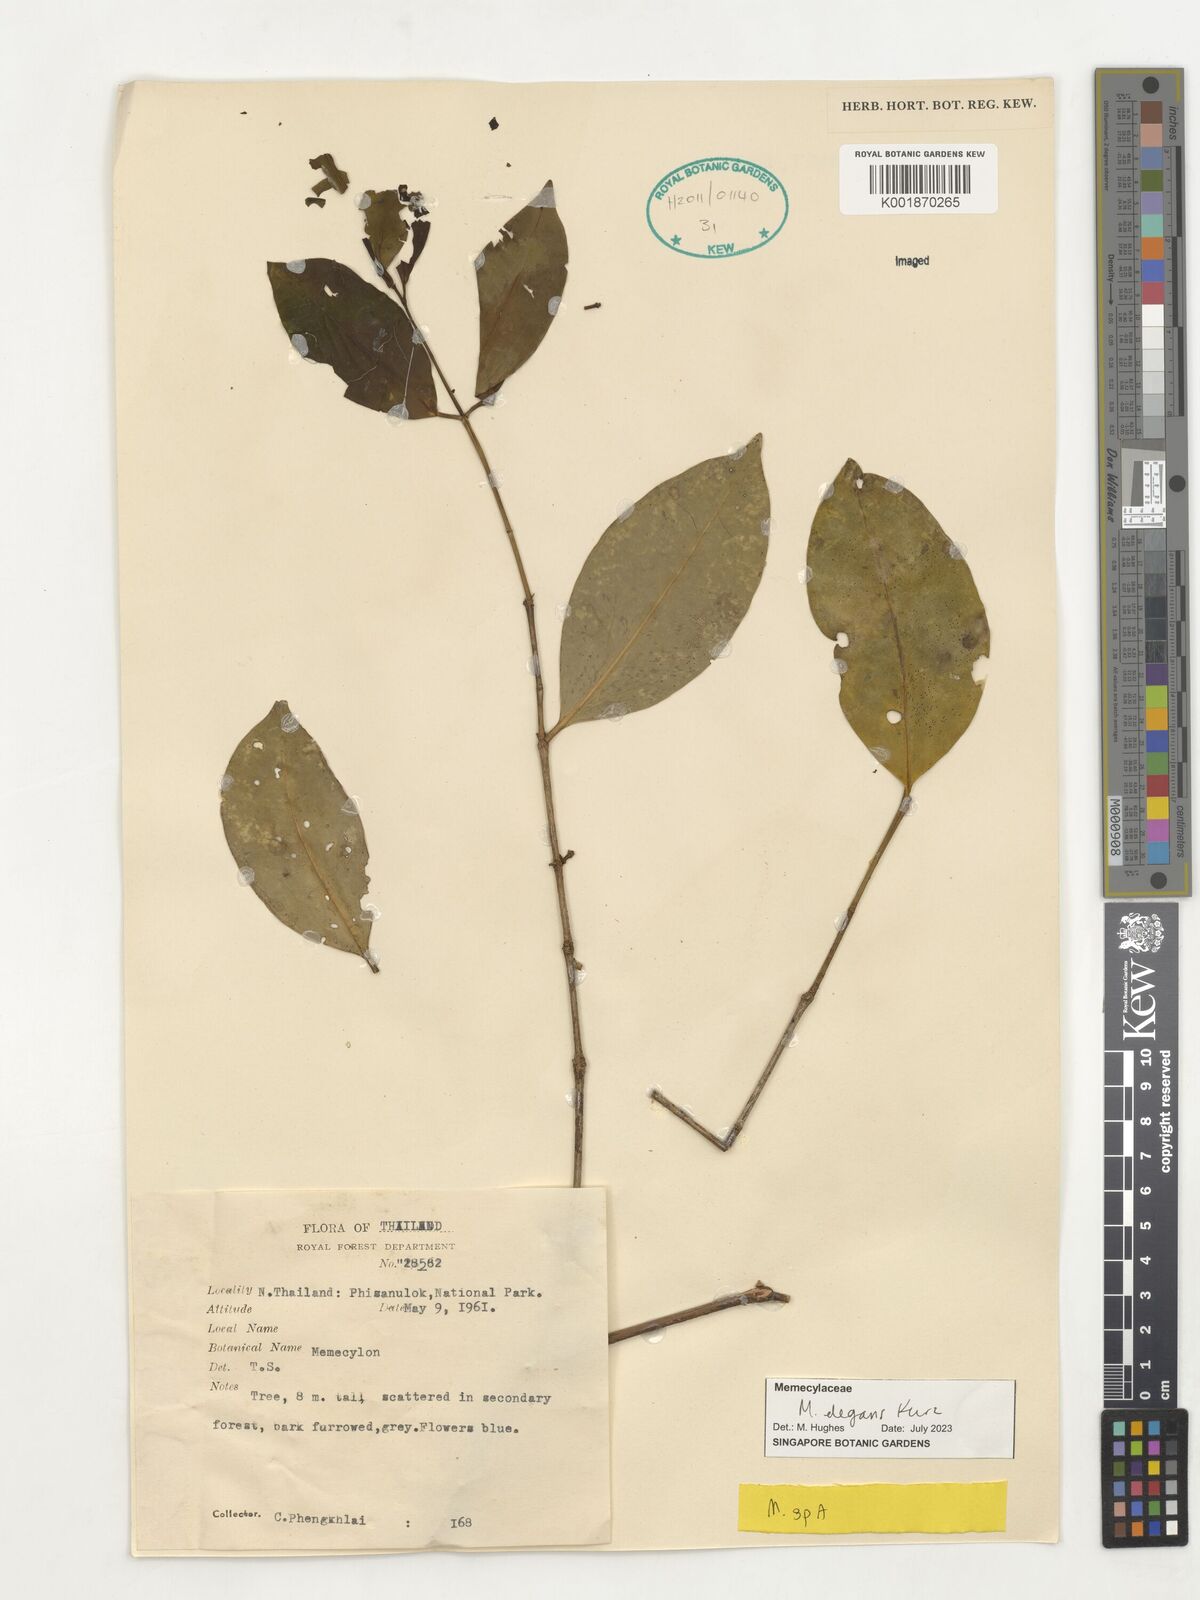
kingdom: Plantae
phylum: Tracheophyta
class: Magnoliopsida
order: Myrtales
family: Melastomataceae
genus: Memecylon
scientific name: Memecylon elegans
